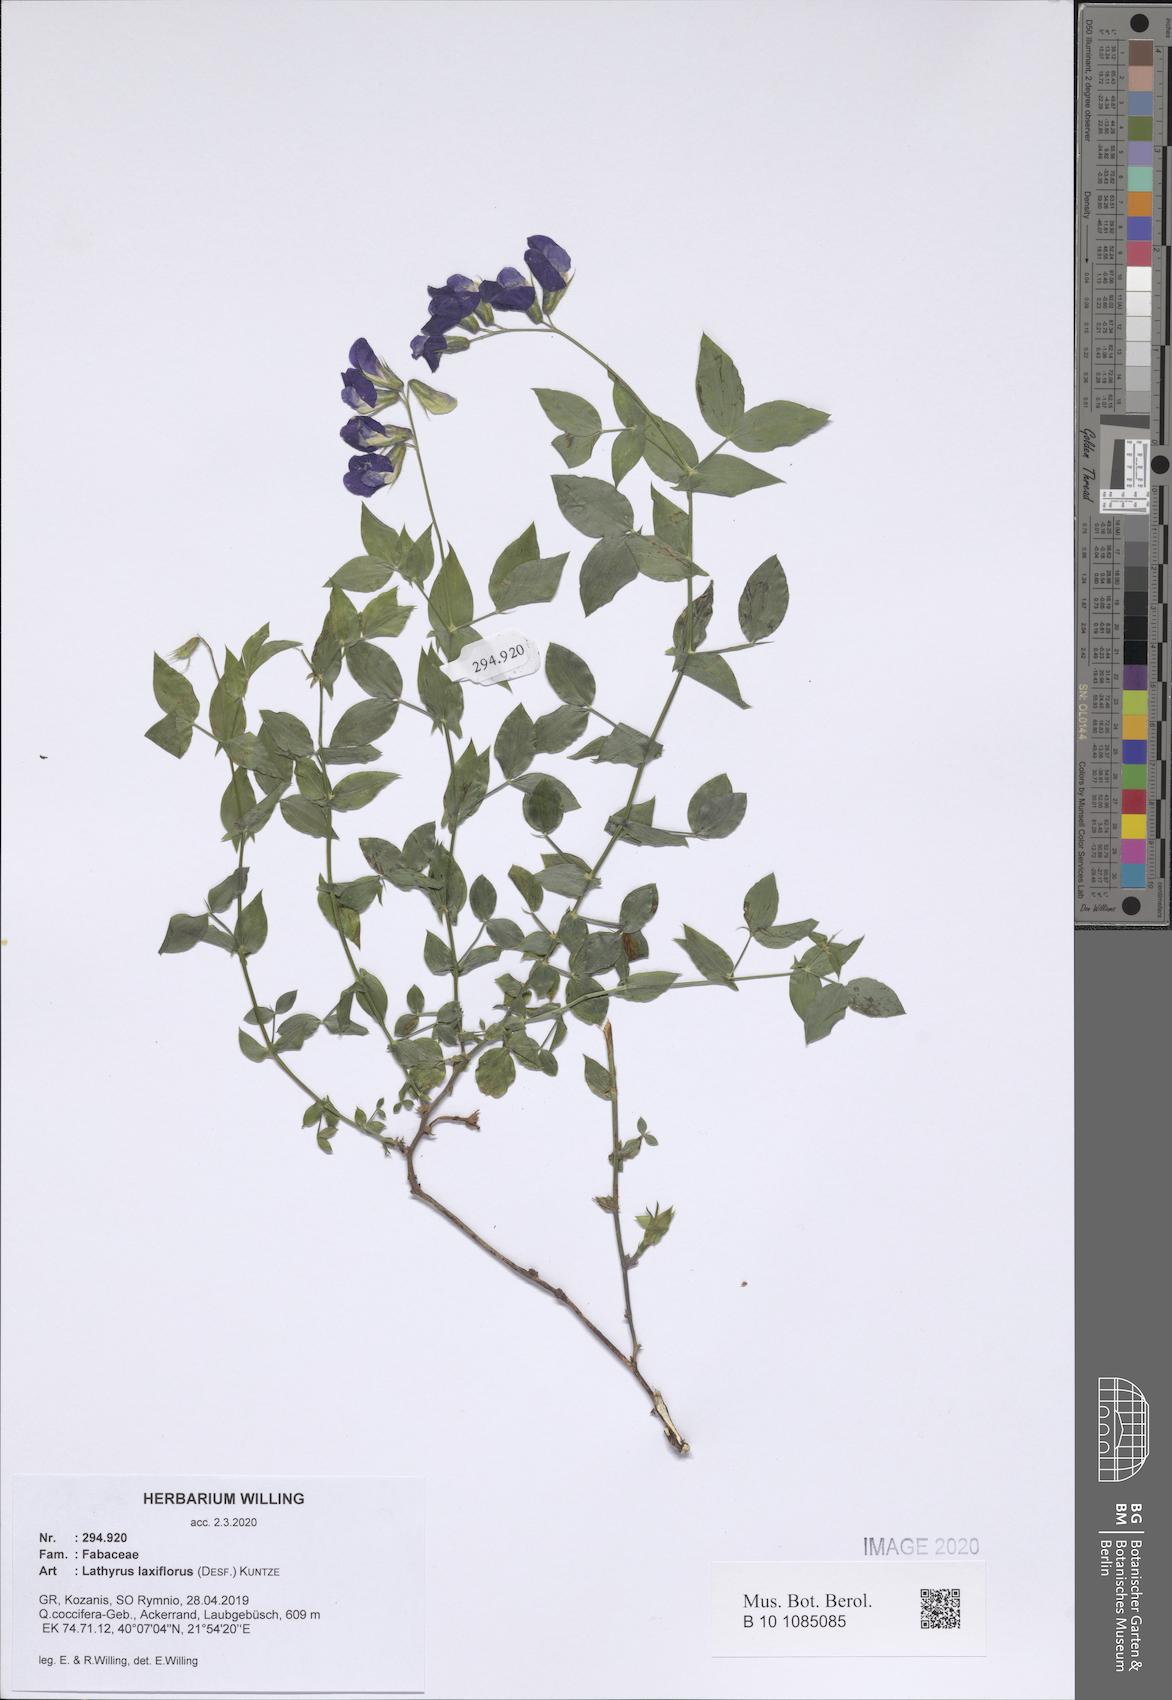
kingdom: Plantae
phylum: Tracheophyta
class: Magnoliopsida
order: Fabales
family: Fabaceae
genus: Lathyrus
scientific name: Lathyrus laxiflorus
